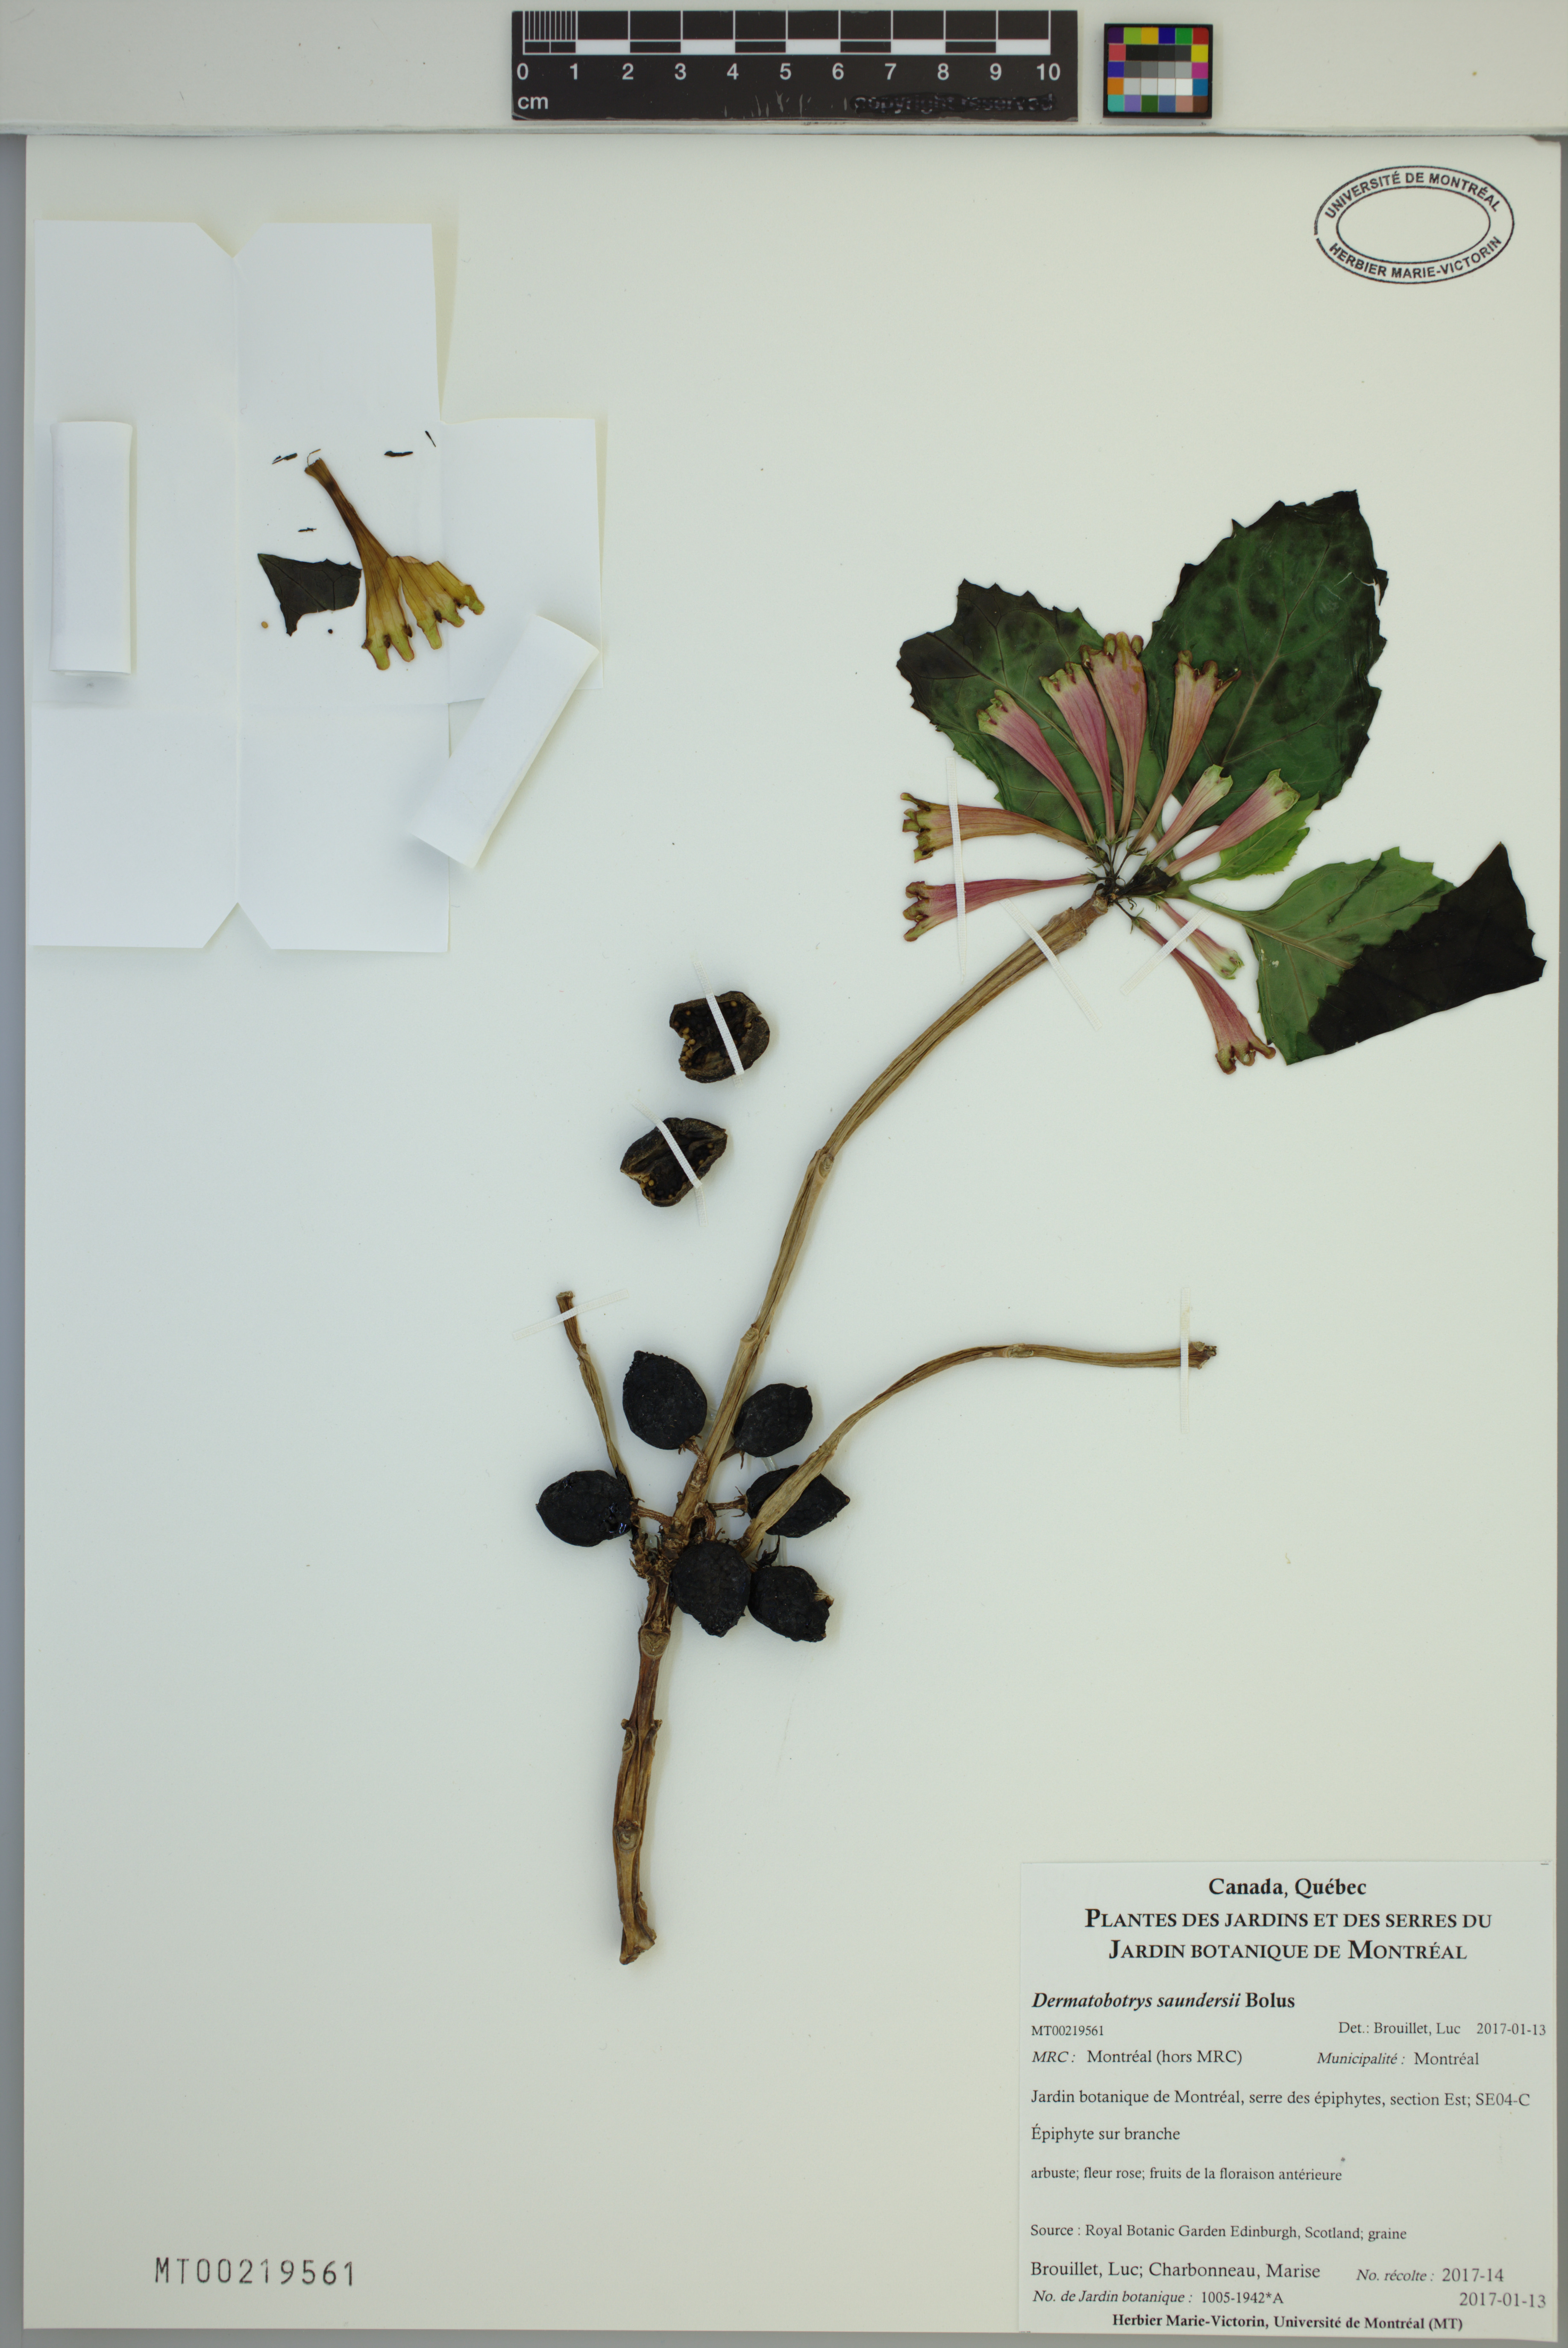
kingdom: Plantae
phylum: Tracheophyta
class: Magnoliopsida
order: Lamiales
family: Scrophulariaceae
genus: Dermatobotrys
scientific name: Dermatobotrys saundersii
